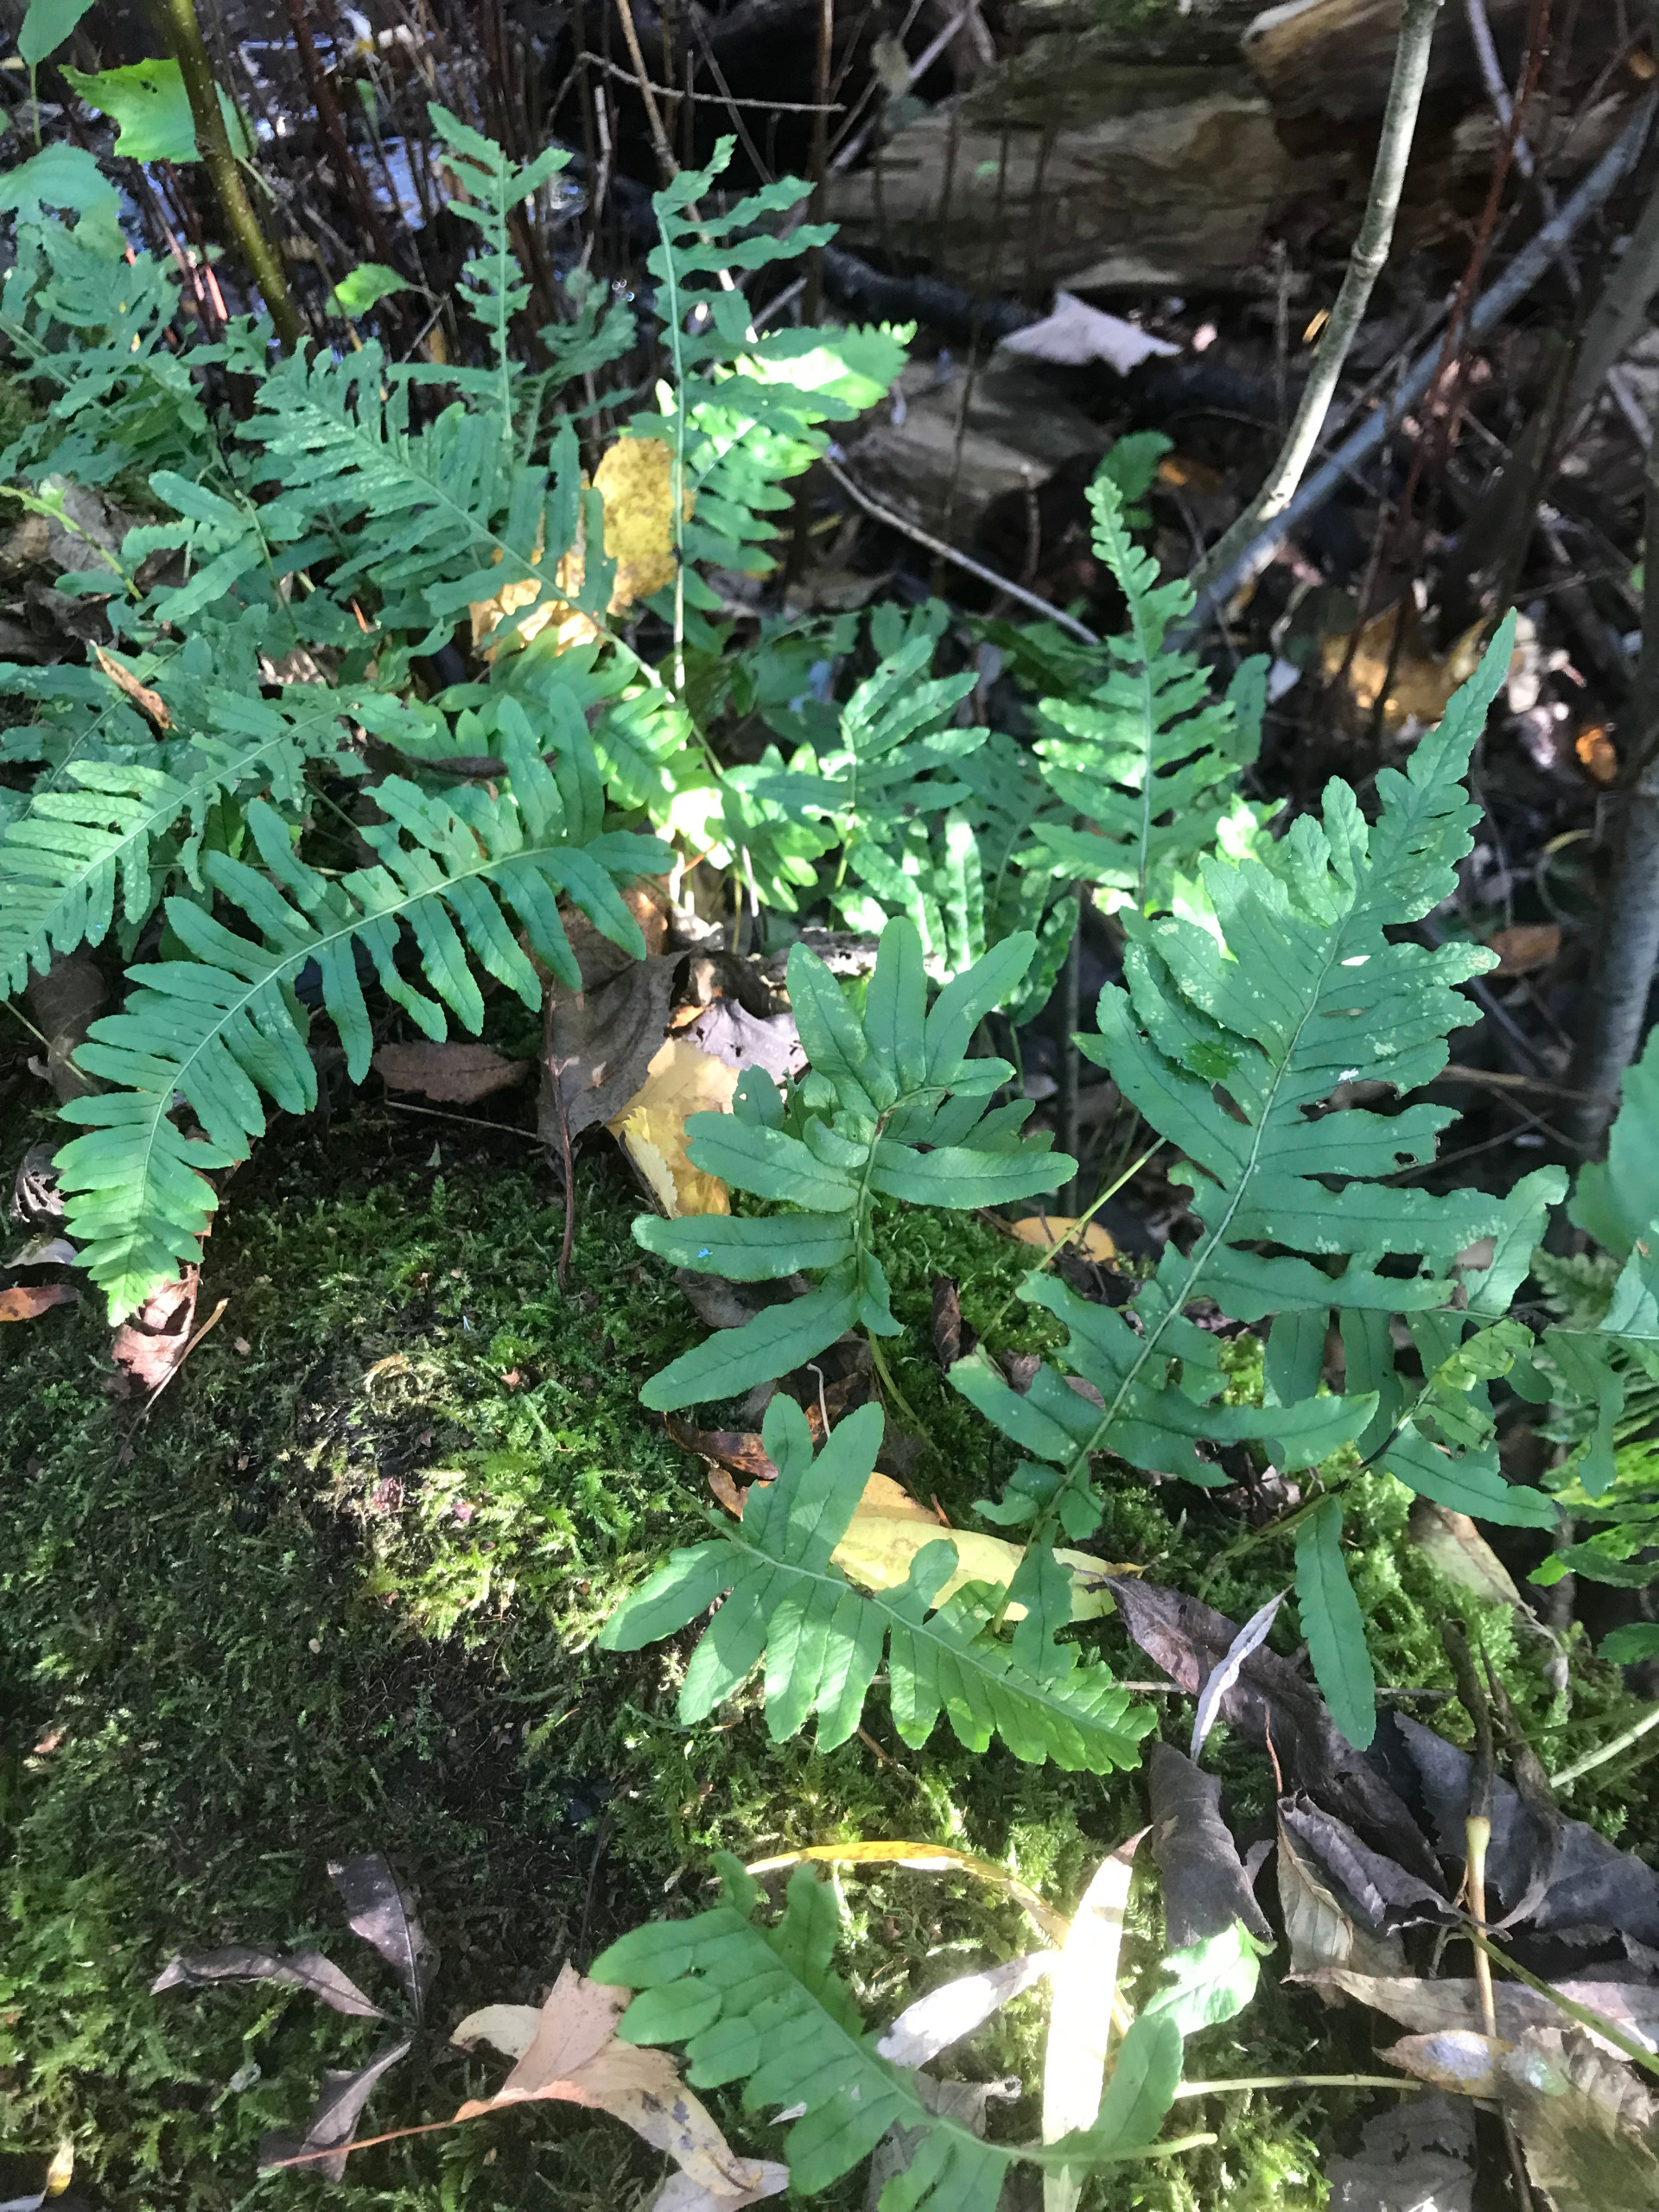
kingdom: Plantae
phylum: Tracheophyta
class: Polypodiopsida
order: Polypodiales
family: Polypodiaceae
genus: Polypodium
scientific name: Polypodium vulgare
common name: Almindelig engelsød
